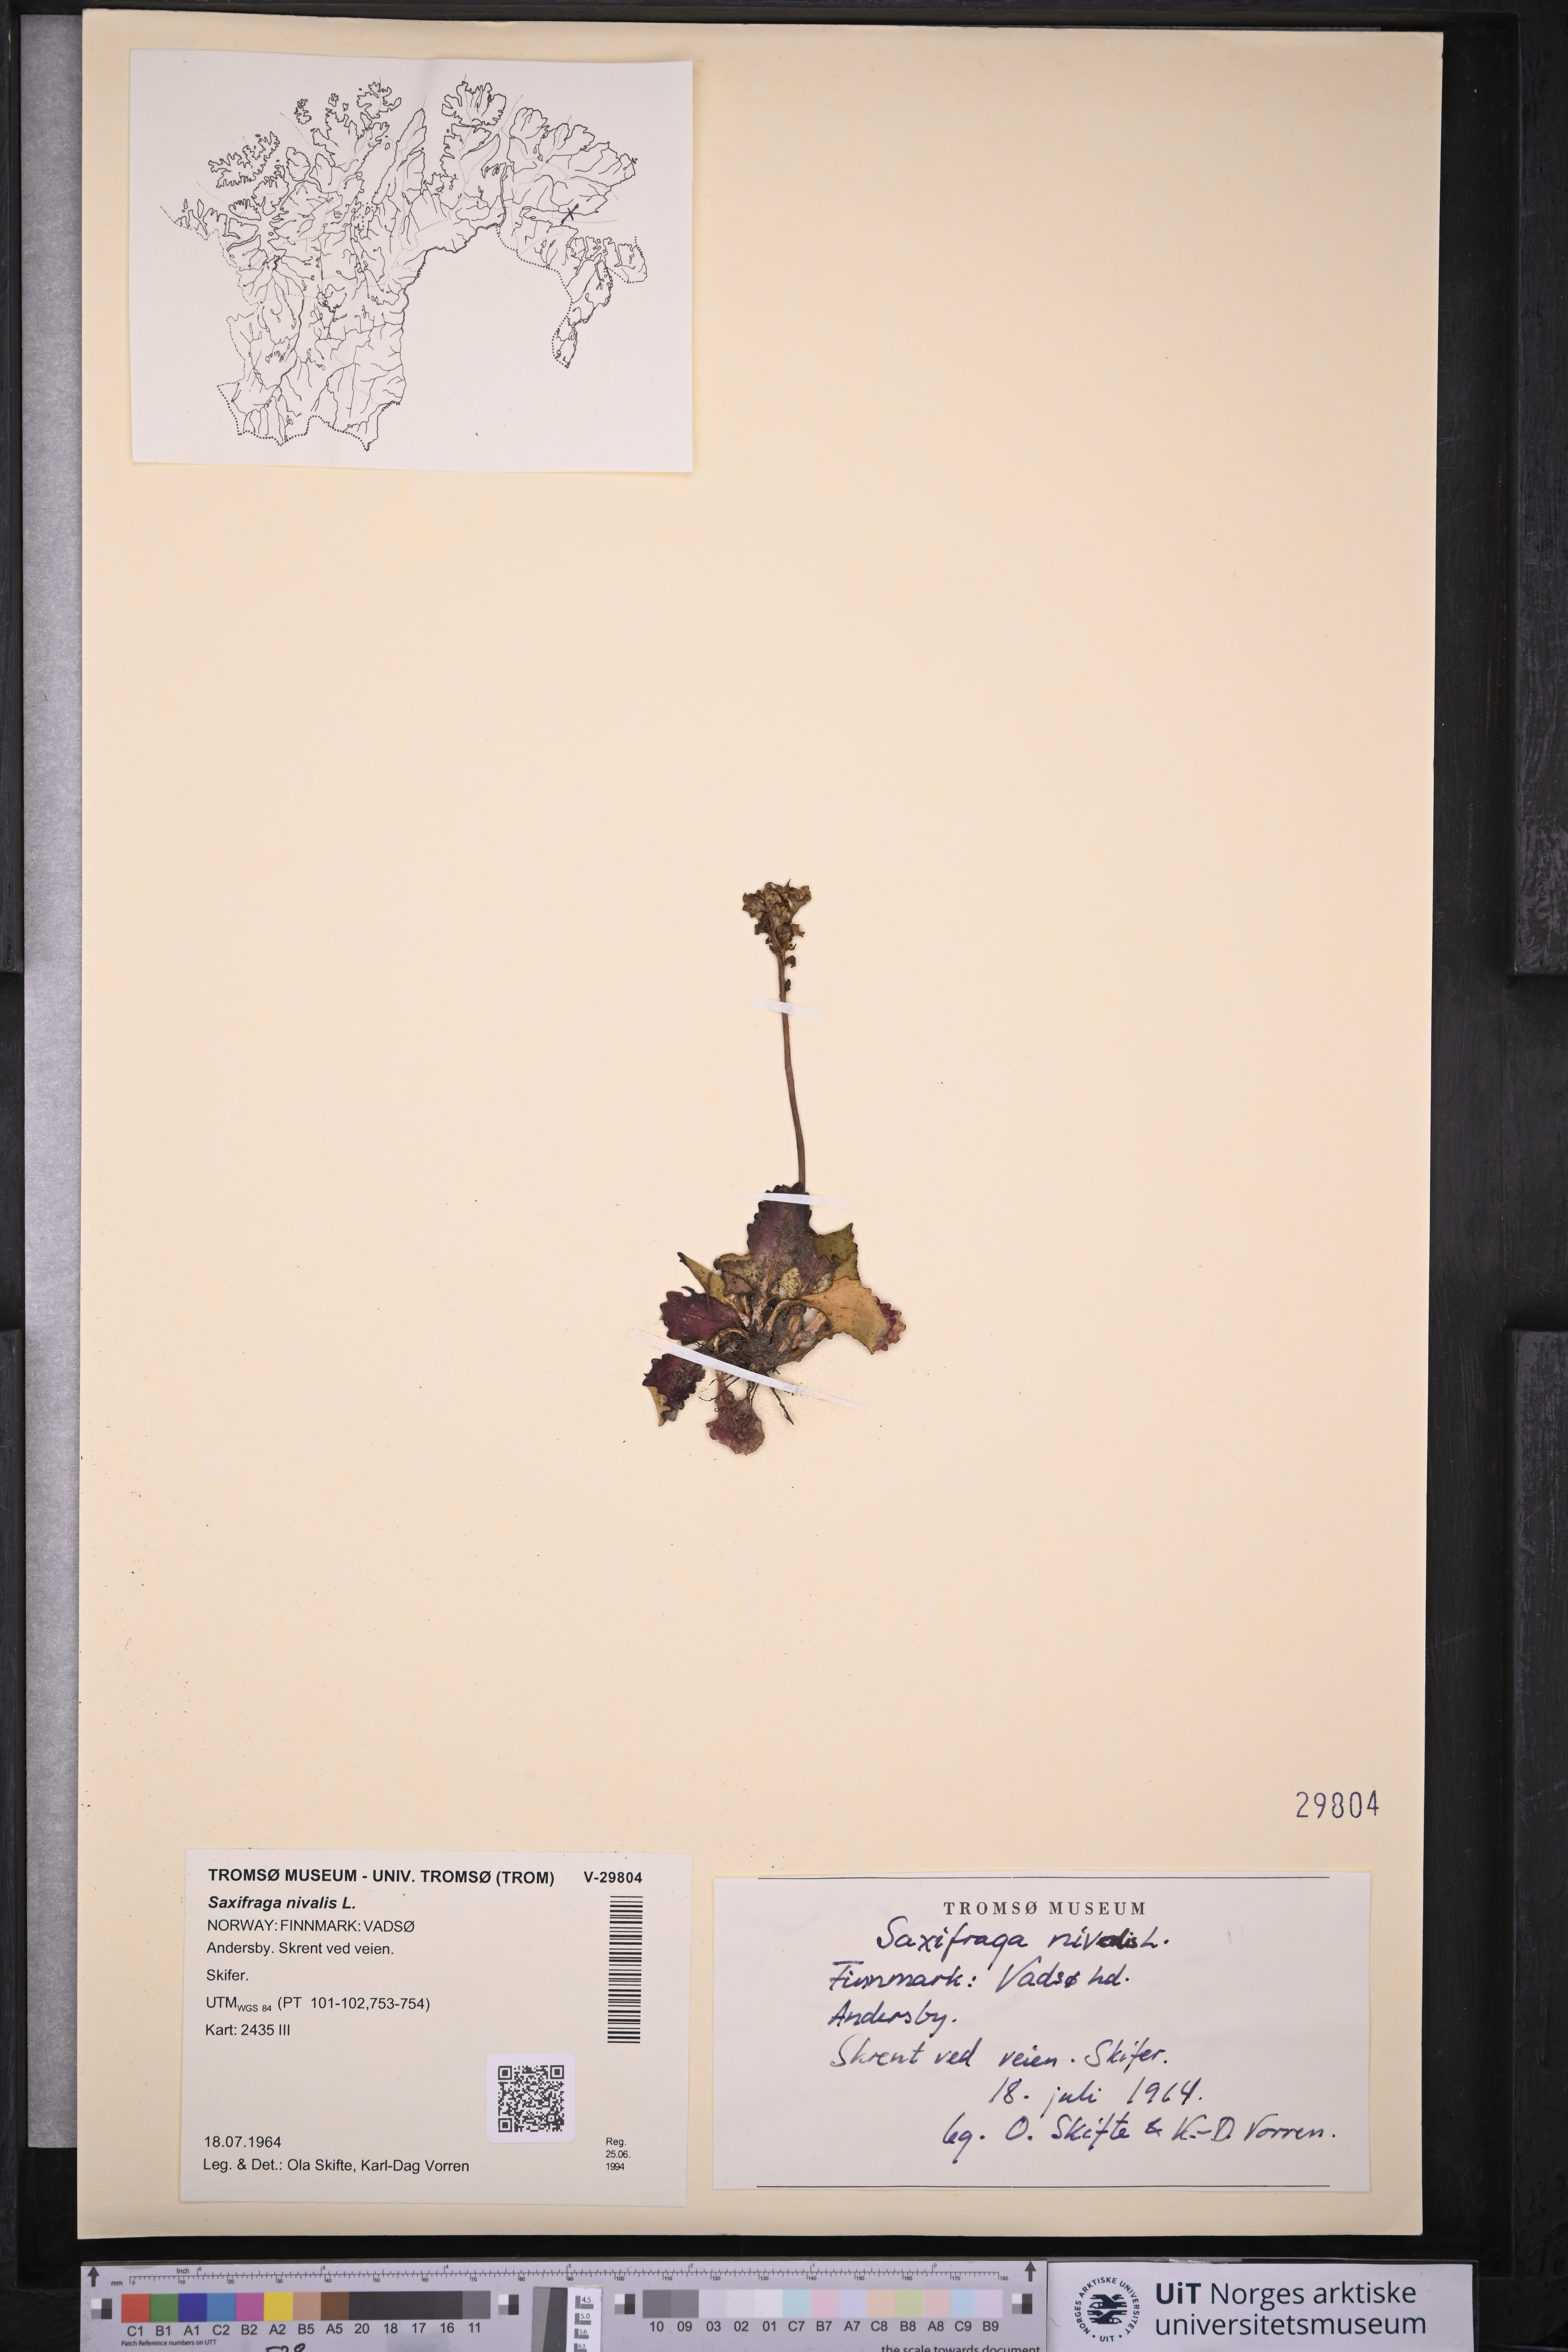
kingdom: Plantae
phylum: Tracheophyta
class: Magnoliopsida
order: Saxifragales
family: Saxifragaceae
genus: Micranthes
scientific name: Micranthes nivalis
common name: Alpine saxifrage
